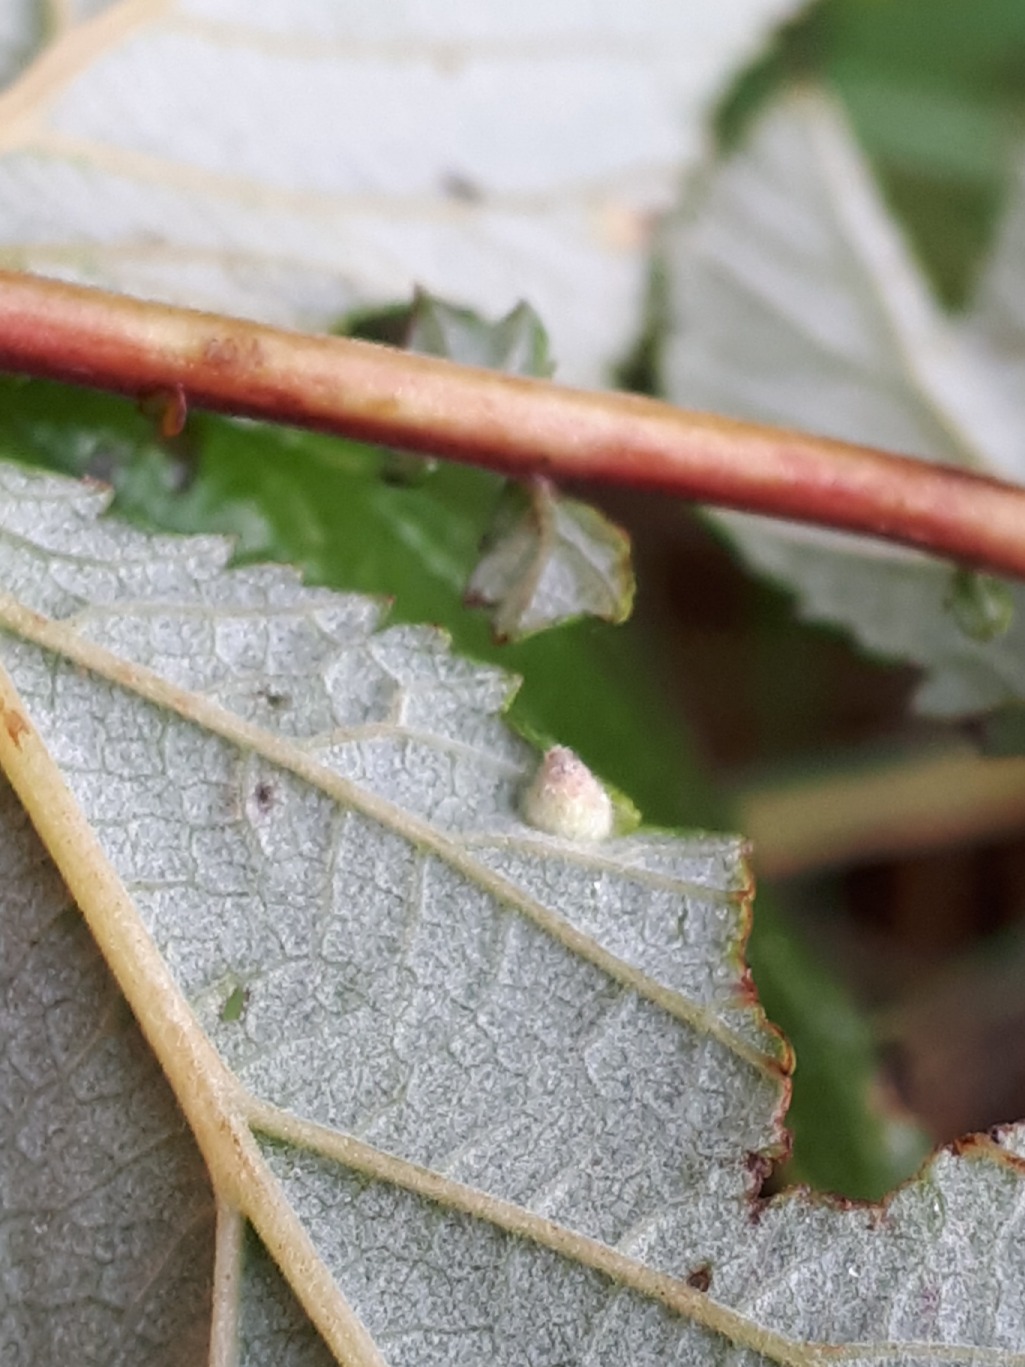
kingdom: Animalia
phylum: Arthropoda
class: Insecta
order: Diptera
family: Cecidomyiidae
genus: Dasineura
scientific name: Dasineura ulmaria
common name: Mjødurtgalmyg
